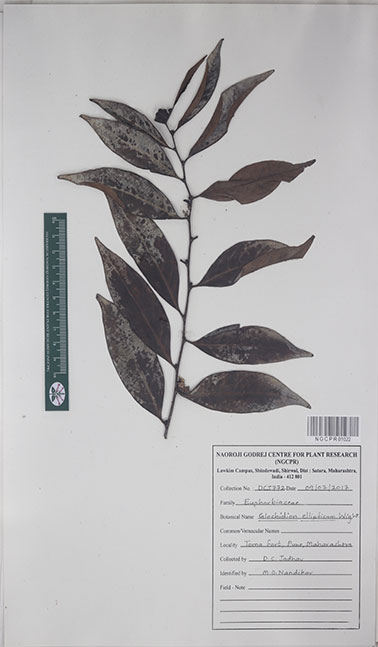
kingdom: Plantae
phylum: Tracheophyta
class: Magnoliopsida
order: Malpighiales
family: Phyllanthaceae
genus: Glochidion
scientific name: Glochidion ellipticum
